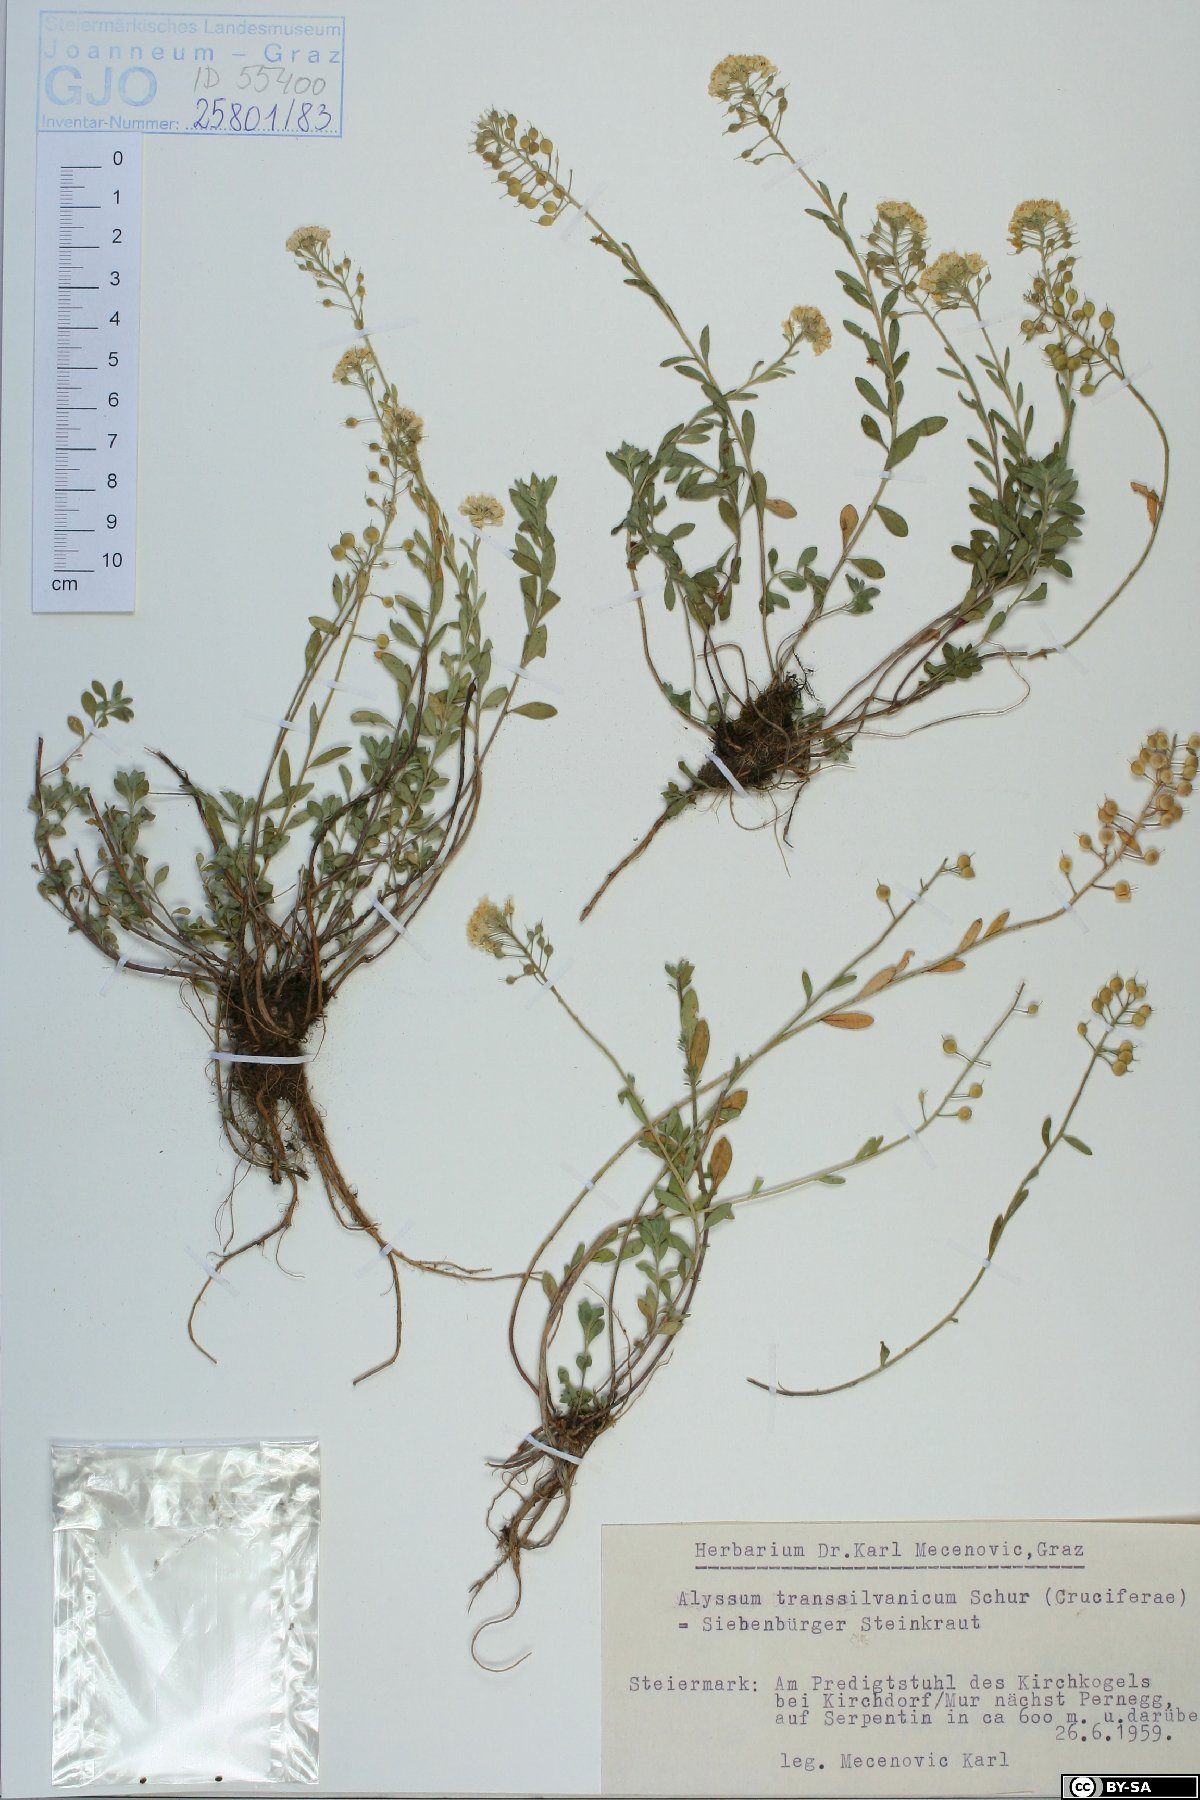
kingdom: Plantae
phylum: Tracheophyta
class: Magnoliopsida
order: Brassicales
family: Brassicaceae
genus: Alyssum
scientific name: Alyssum repens
